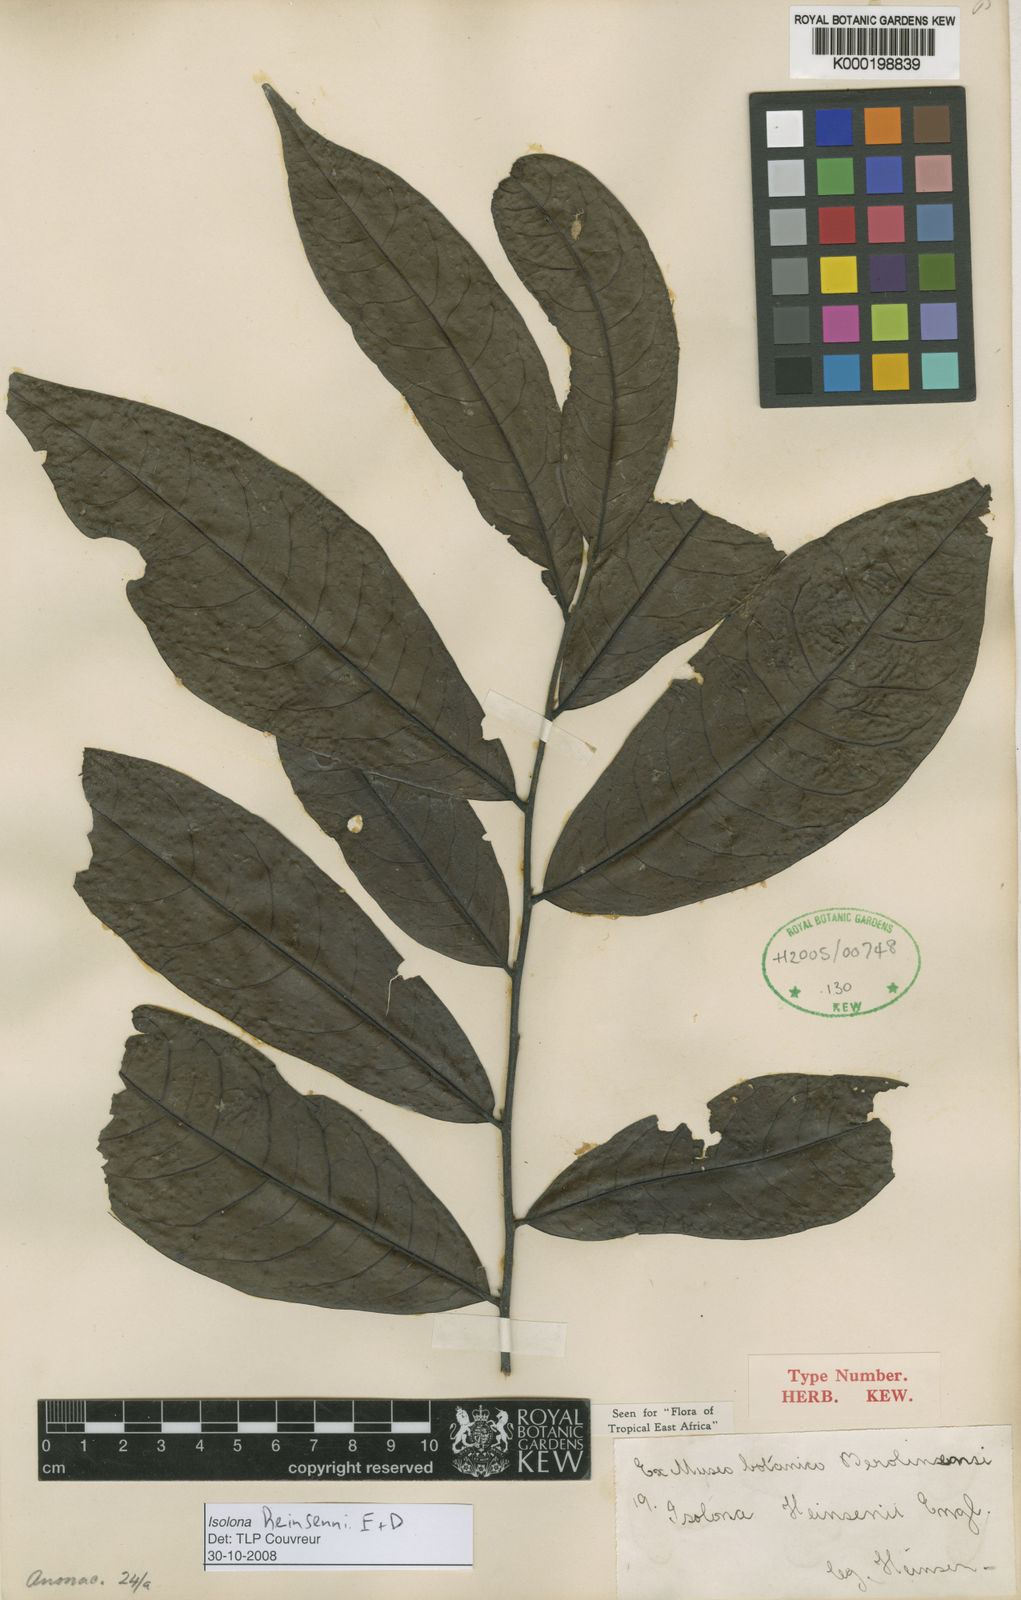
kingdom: Plantae
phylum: Tracheophyta
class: Magnoliopsida
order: Magnoliales
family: Annonaceae
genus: Isolona
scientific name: Isolona heinsenii
